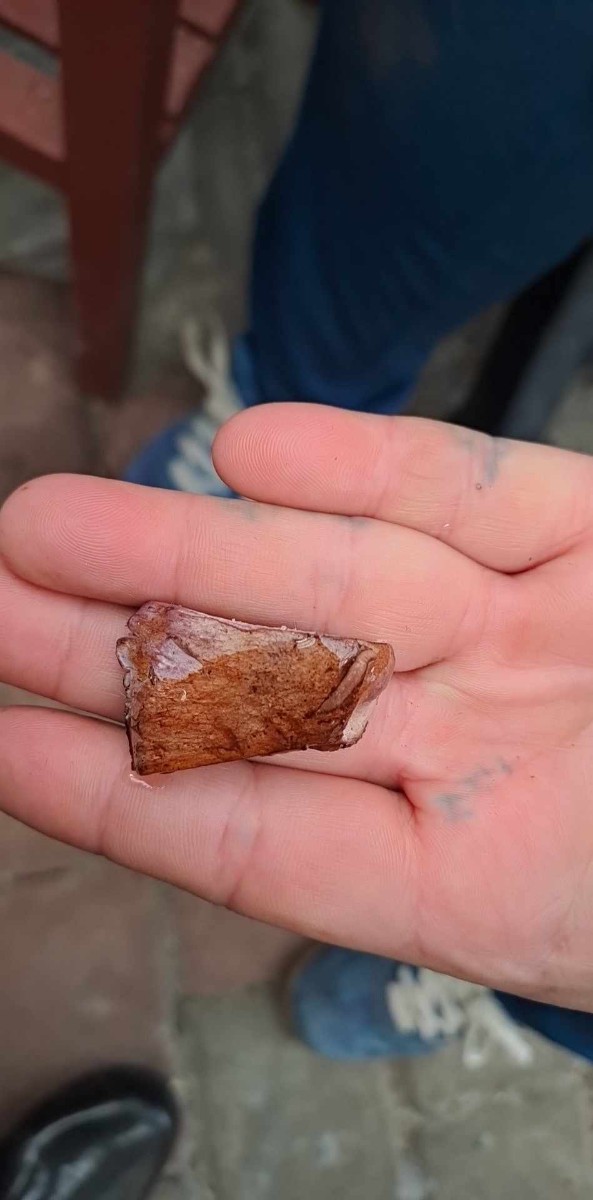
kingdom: Fungi
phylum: Basidiomycota
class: Agaricomycetes
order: Agaricales
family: Cortinariaceae
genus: Cortinarius
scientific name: Cortinarius
